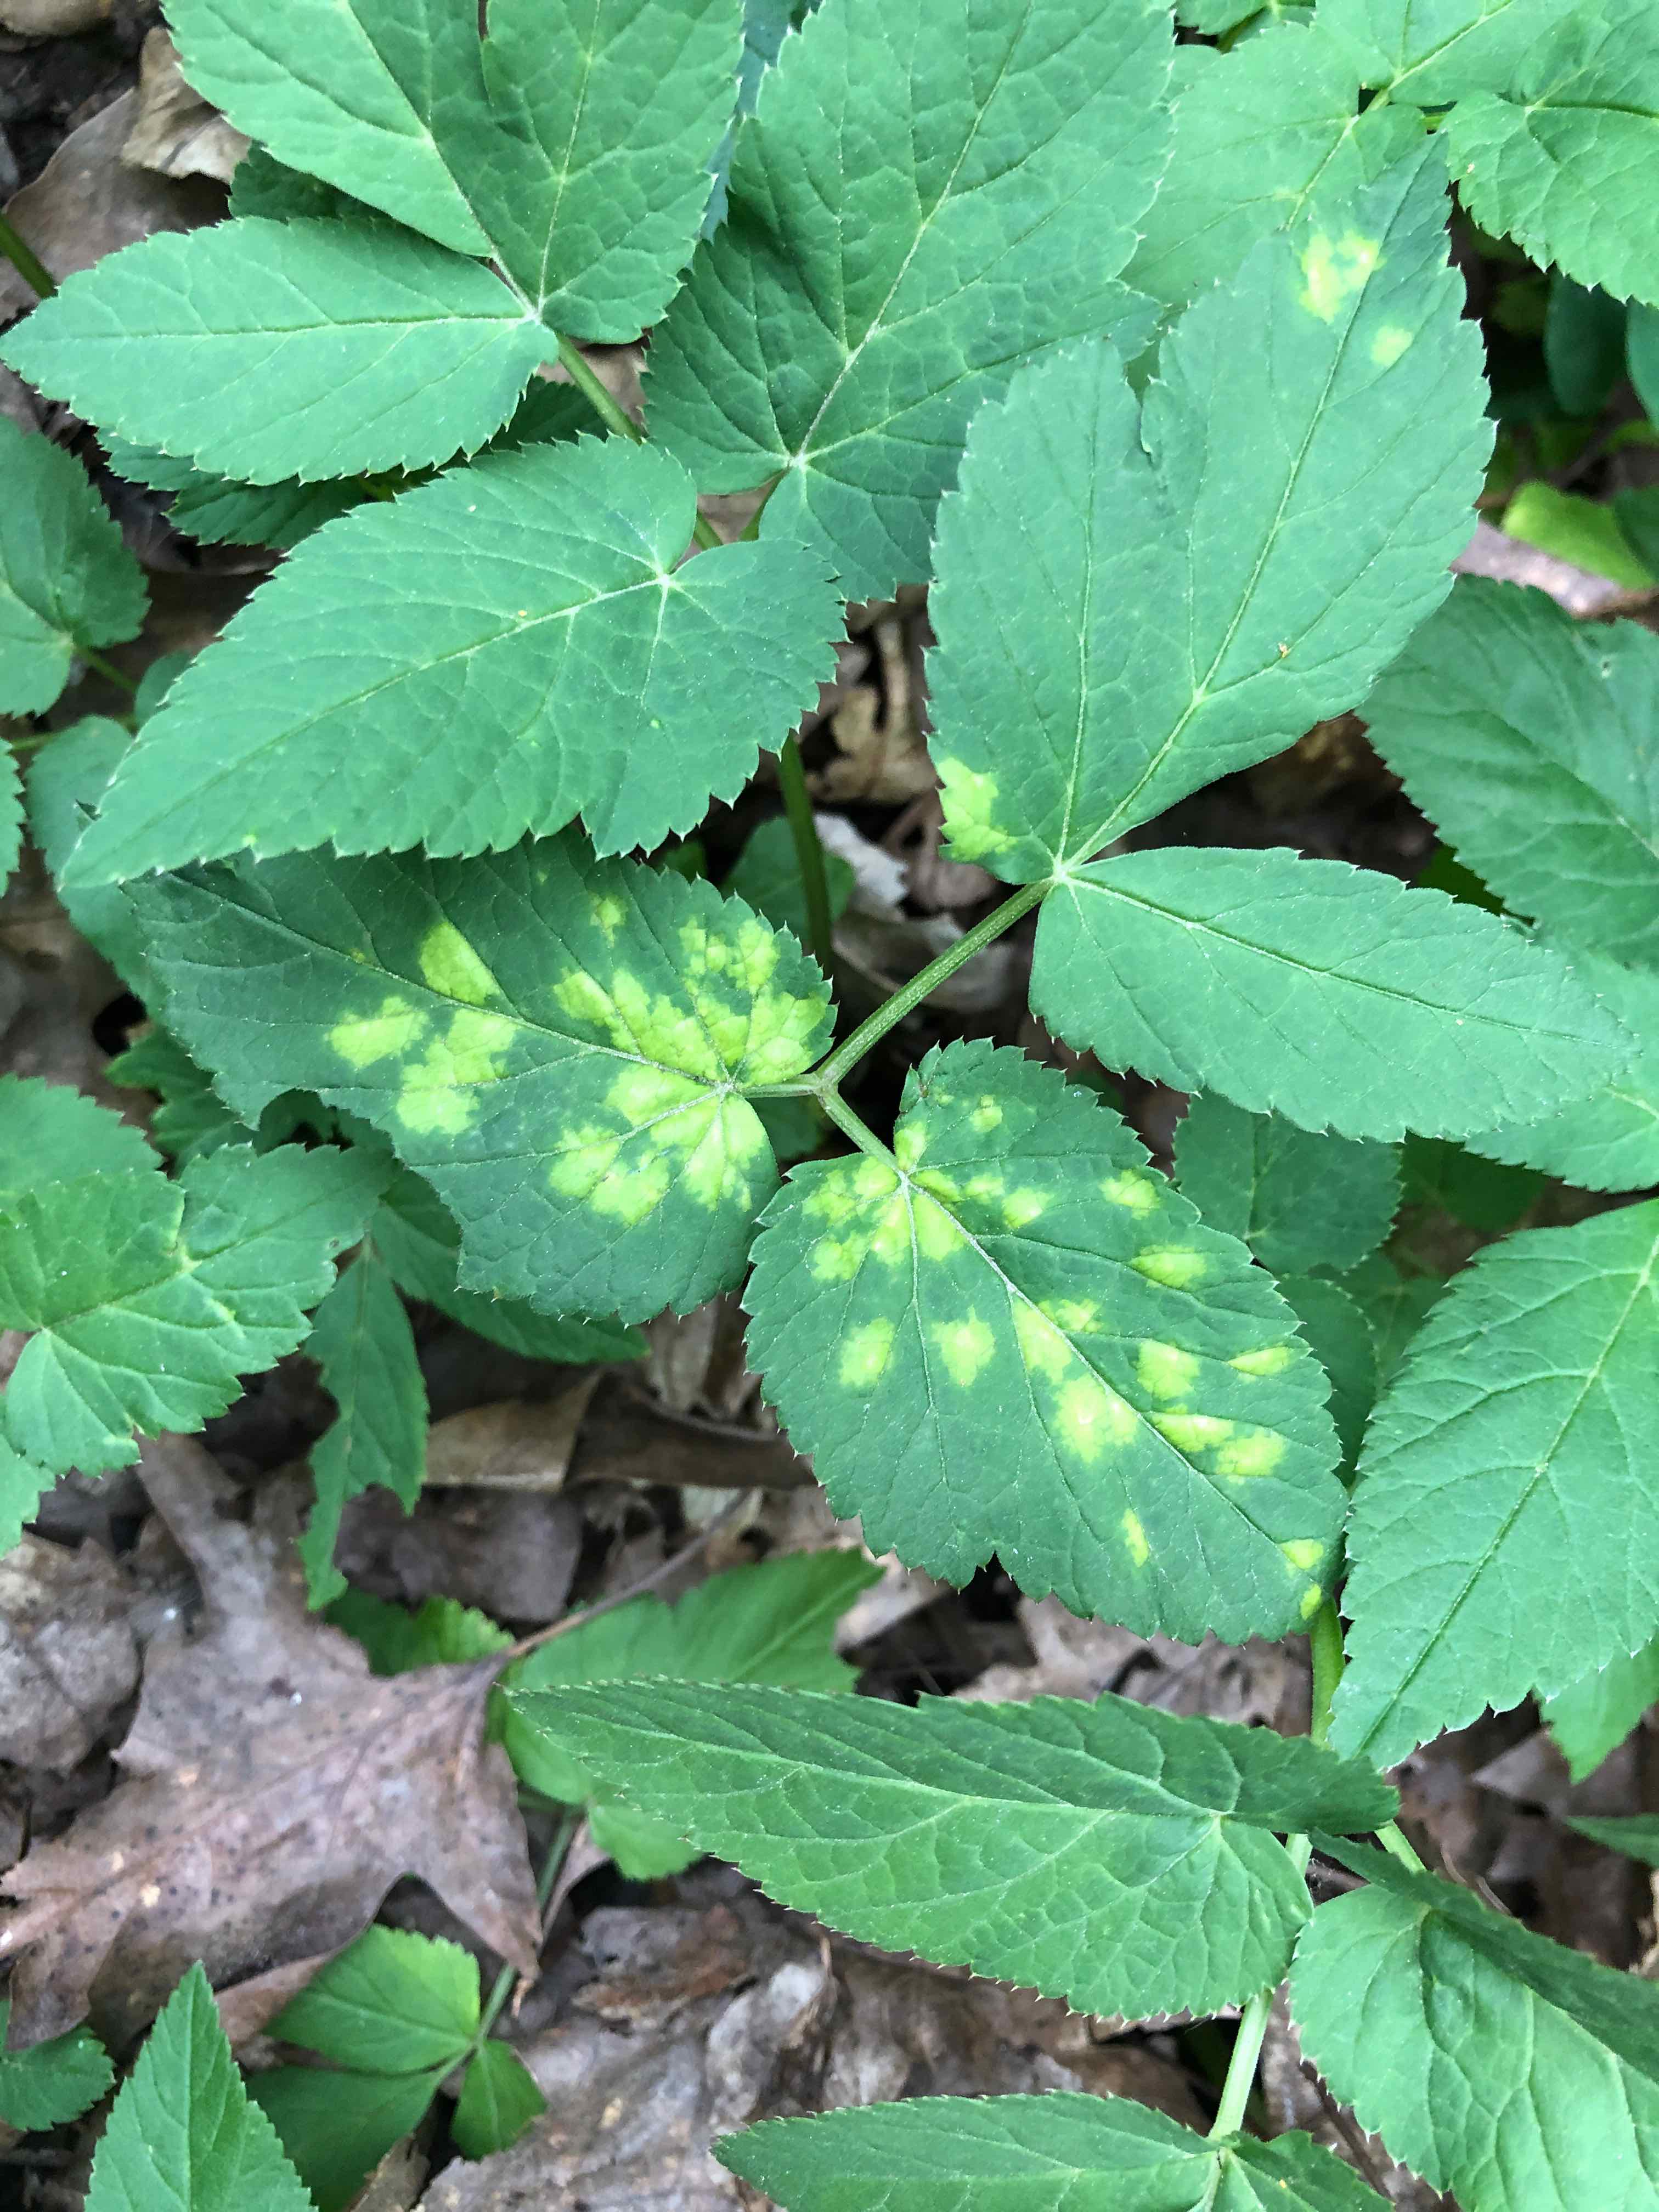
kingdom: Chromista
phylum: Oomycota
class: Peronosporea
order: Peronosporales
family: Peronosporaceae
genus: Peronospora
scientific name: Peronospora crustosa
